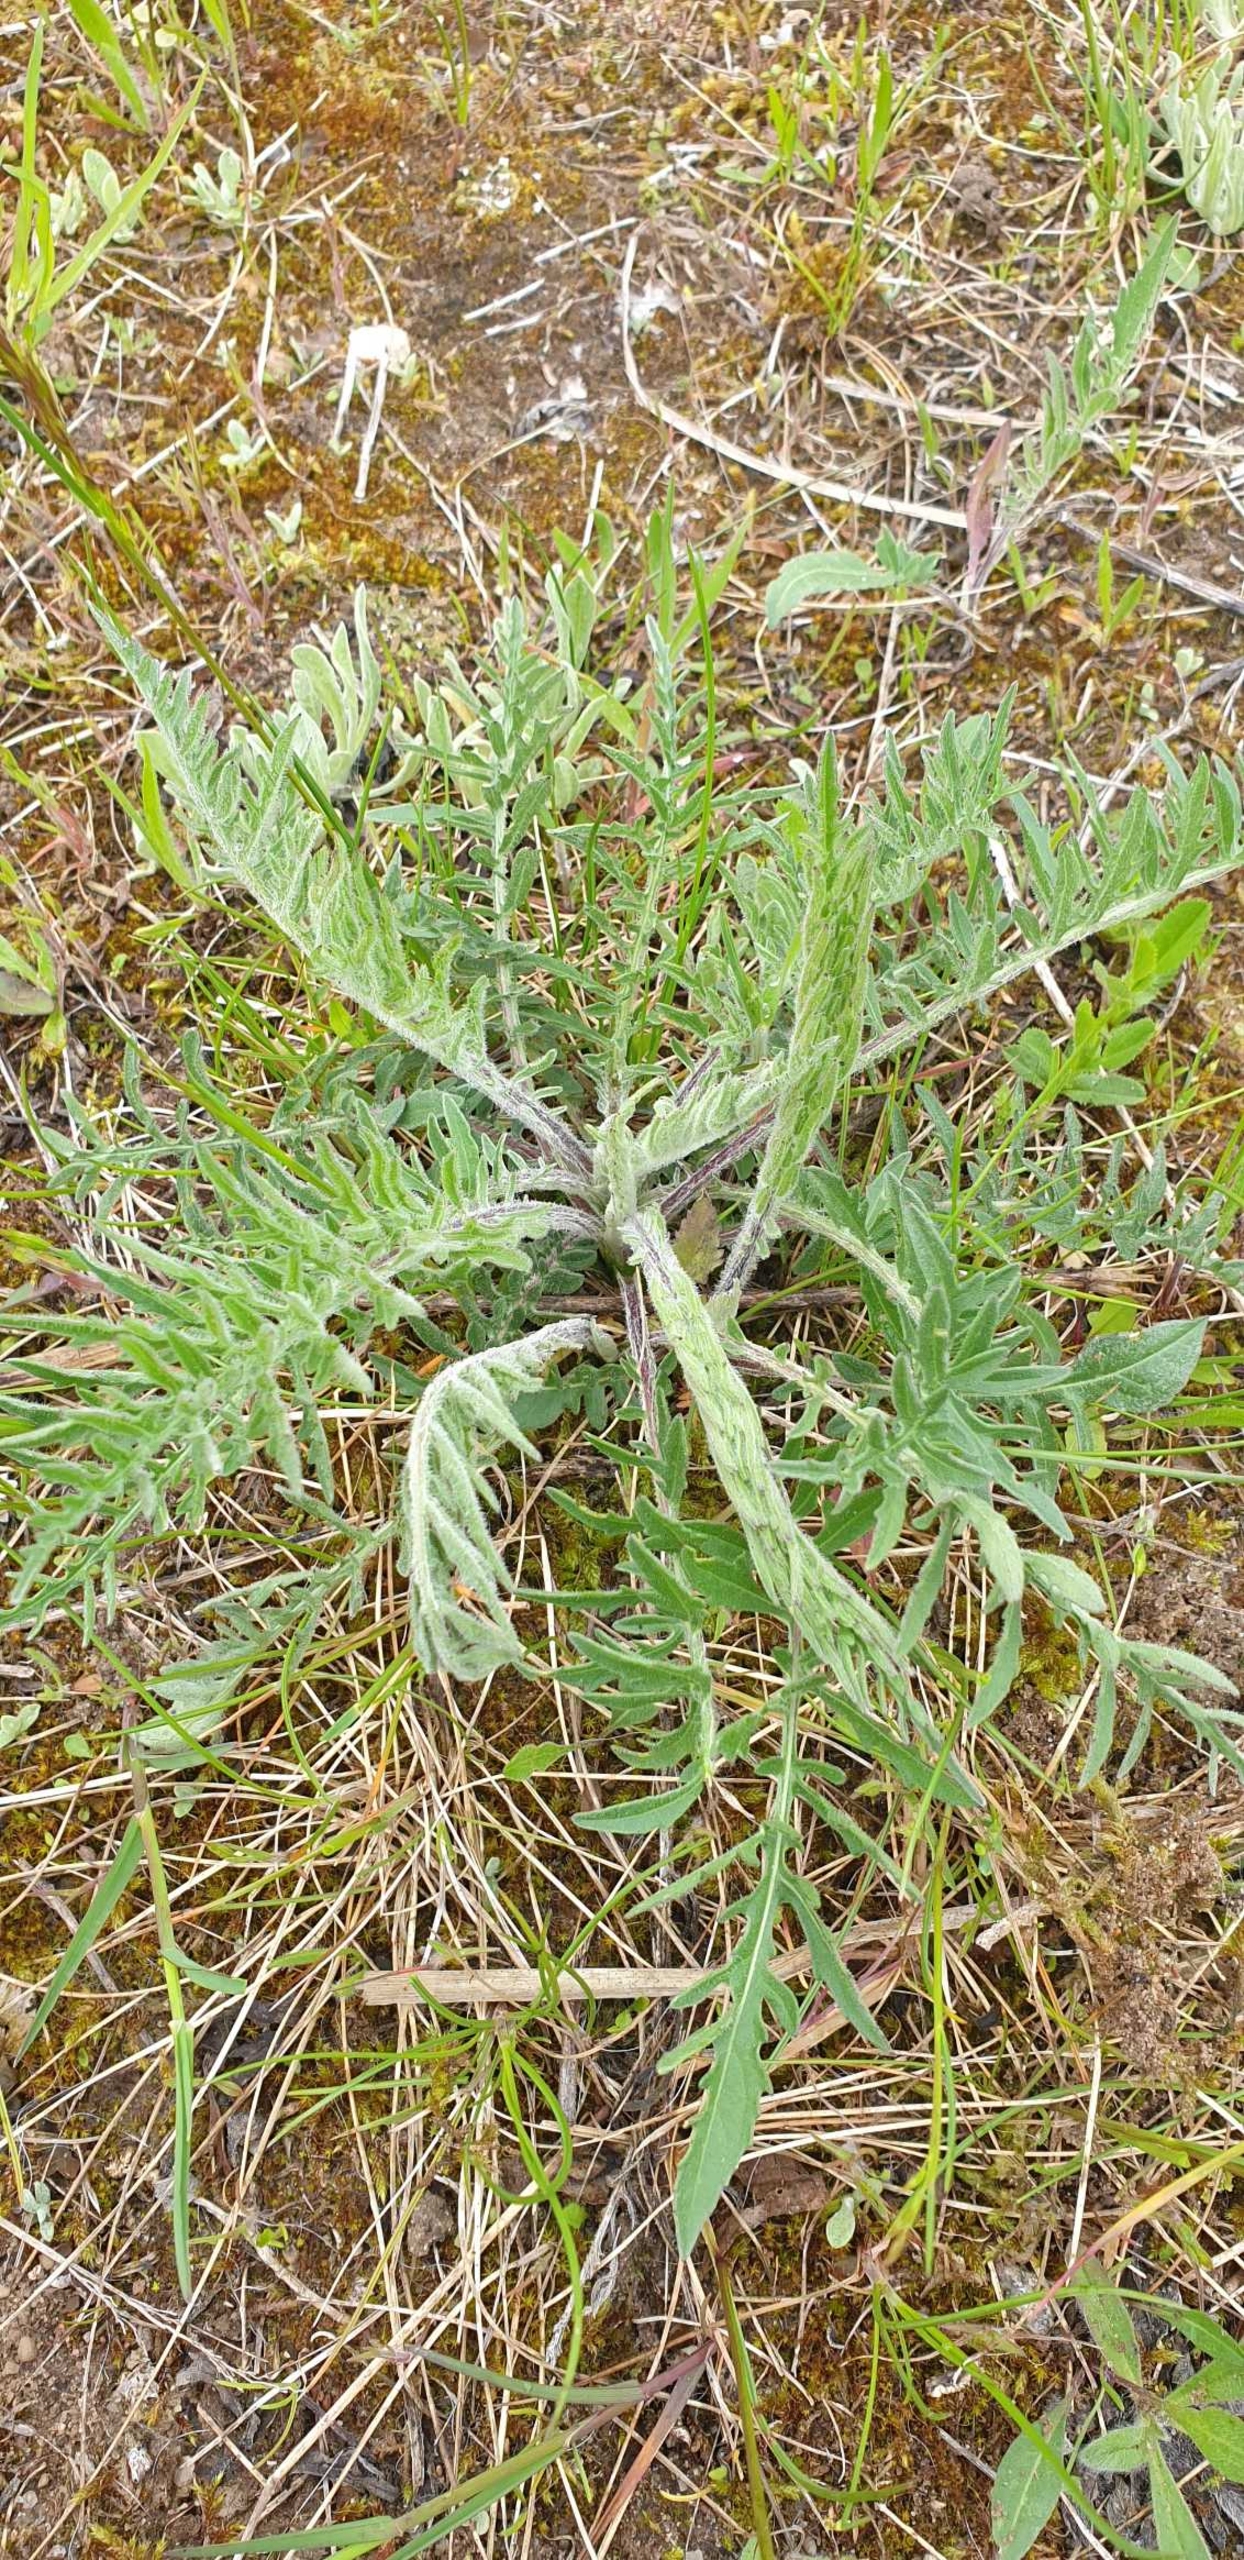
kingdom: Plantae
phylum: Tracheophyta
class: Magnoliopsida
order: Asterales
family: Asteraceae
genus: Centaurea
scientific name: Centaurea scabiosa
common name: Stor knopurt
